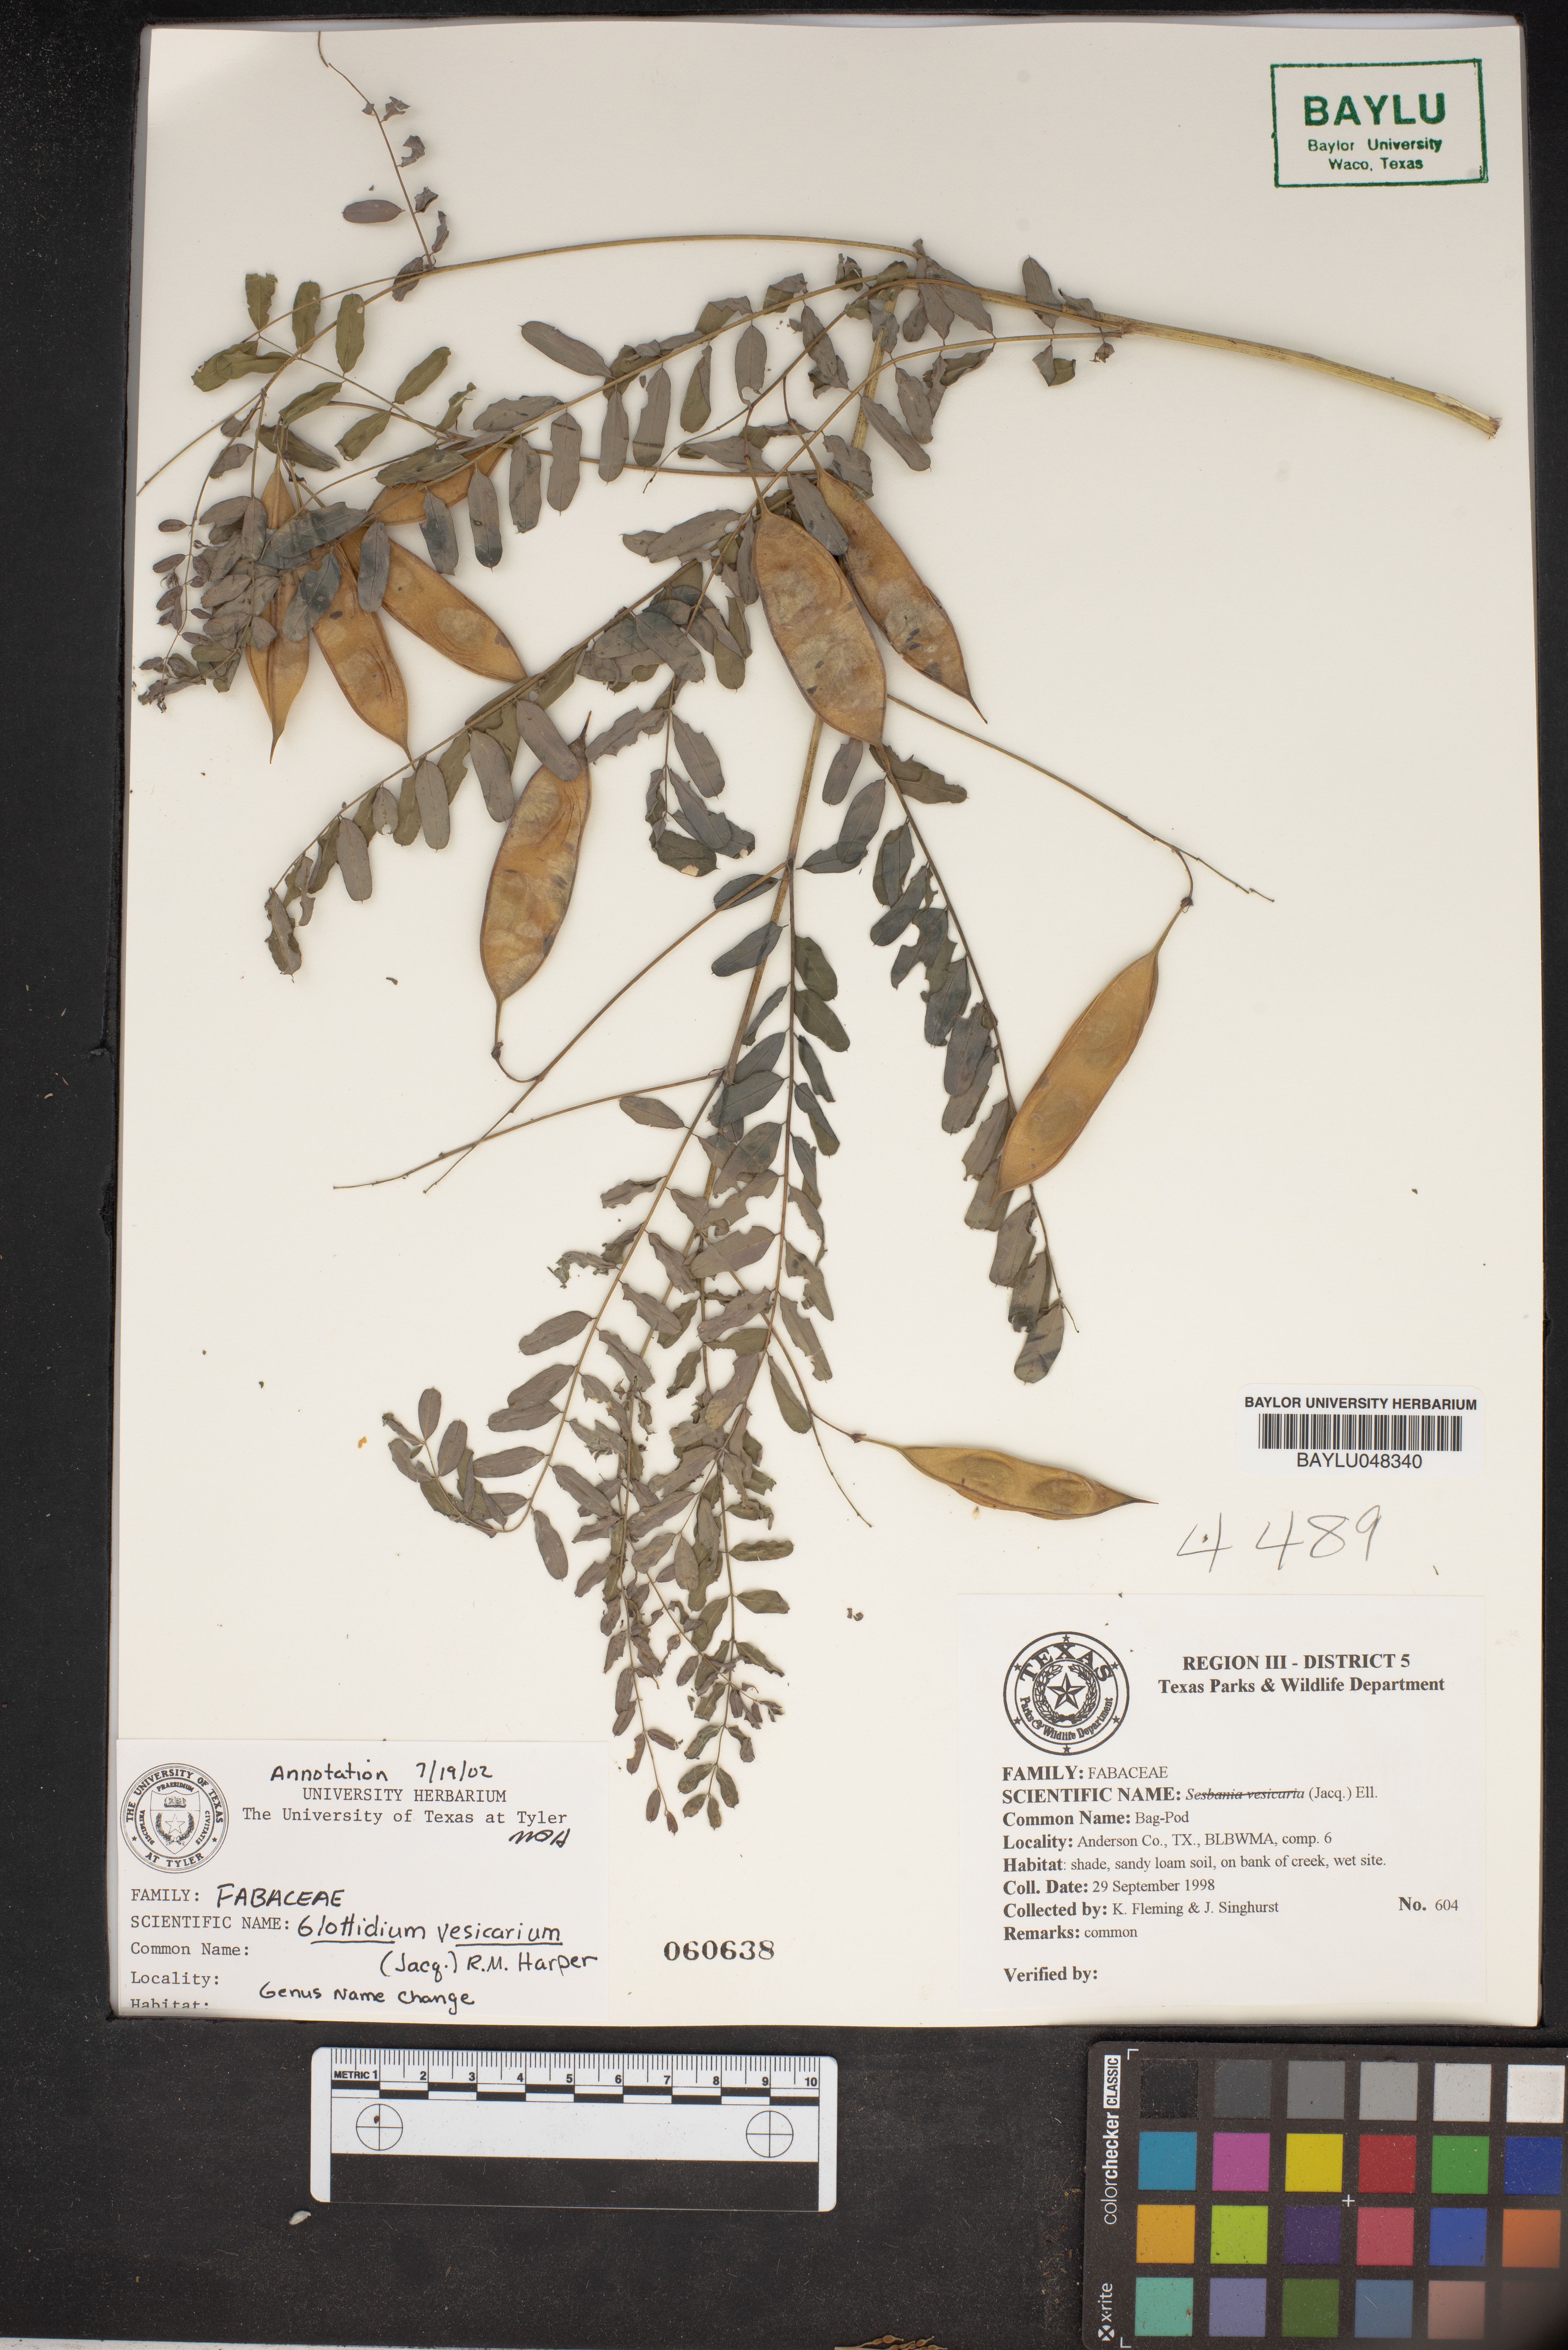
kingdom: Plantae
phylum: Tracheophyta
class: Magnoliopsida
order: Fabales
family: Fabaceae
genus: Sesbania
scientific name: Sesbania vesicaria
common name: Bagpod
